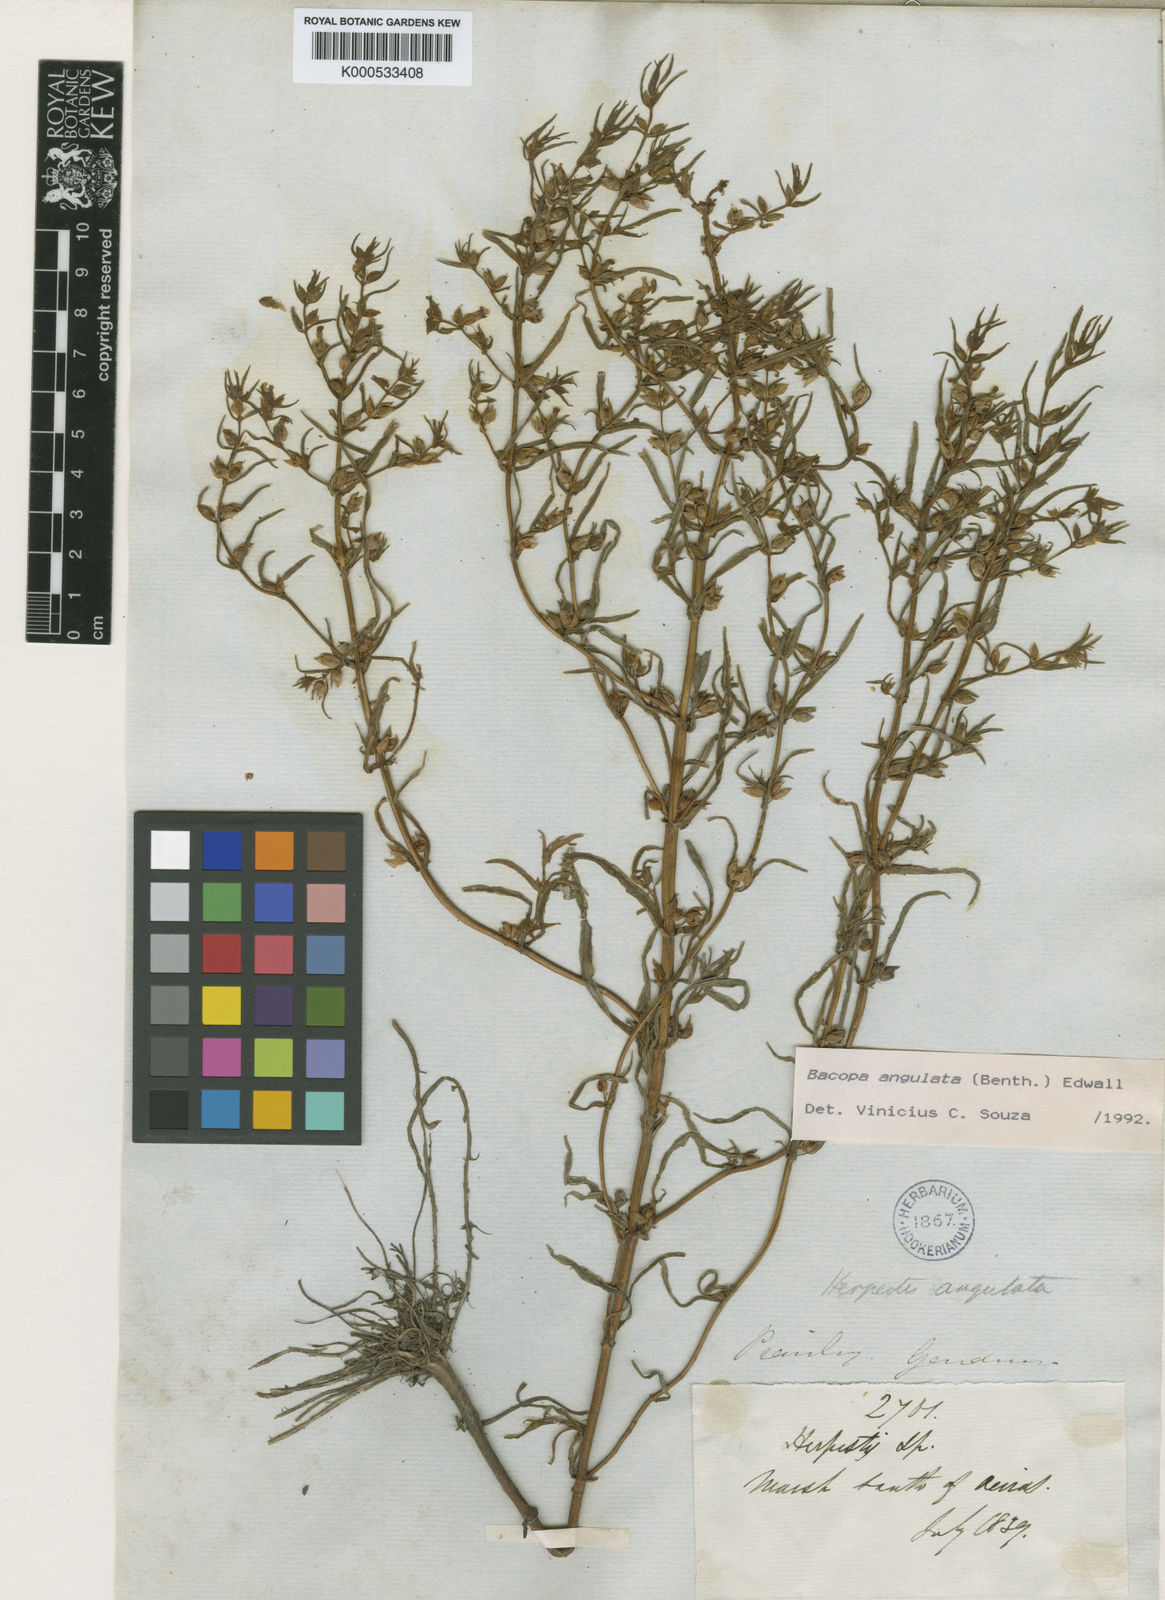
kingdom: Plantae
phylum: Tracheophyta
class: Magnoliopsida
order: Lamiales
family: Plantaginaceae
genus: Bacopa
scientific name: Bacopa angulata
